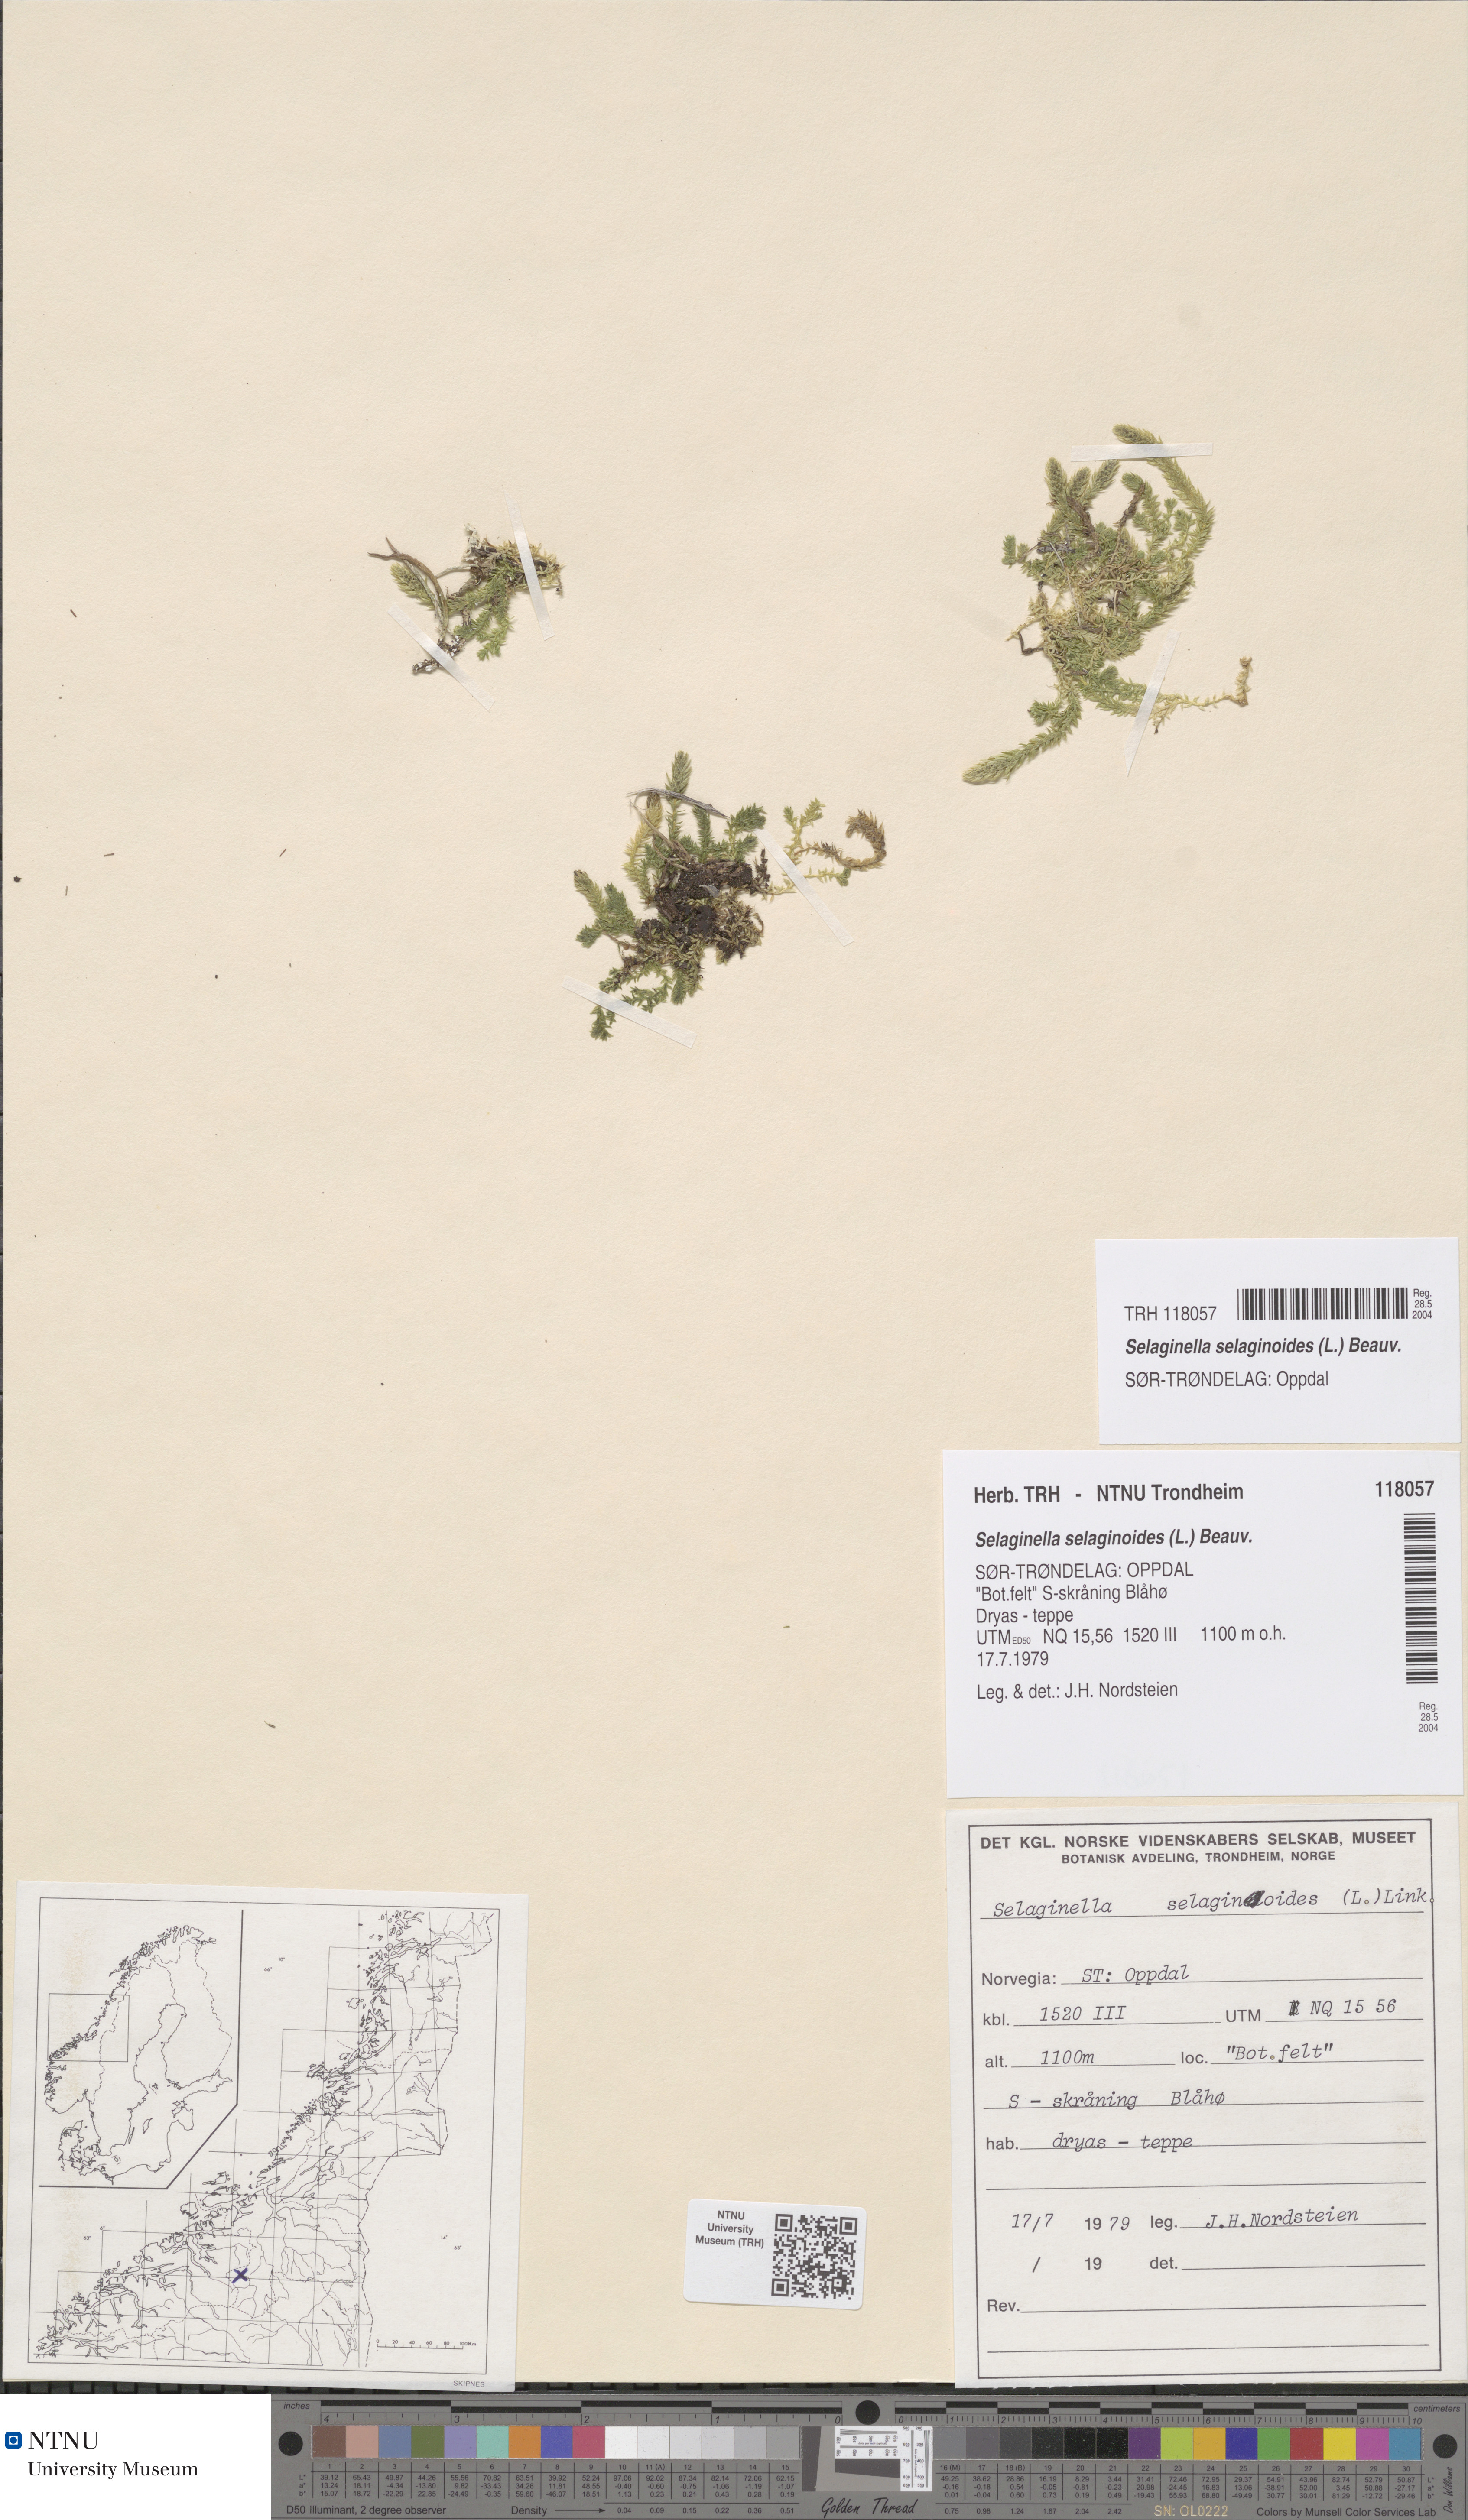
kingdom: Plantae
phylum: Tracheophyta
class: Lycopodiopsida
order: Selaginellales
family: Selaginellaceae
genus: Selaginella
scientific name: Selaginella selaginoides
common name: Prickly mountain-moss
